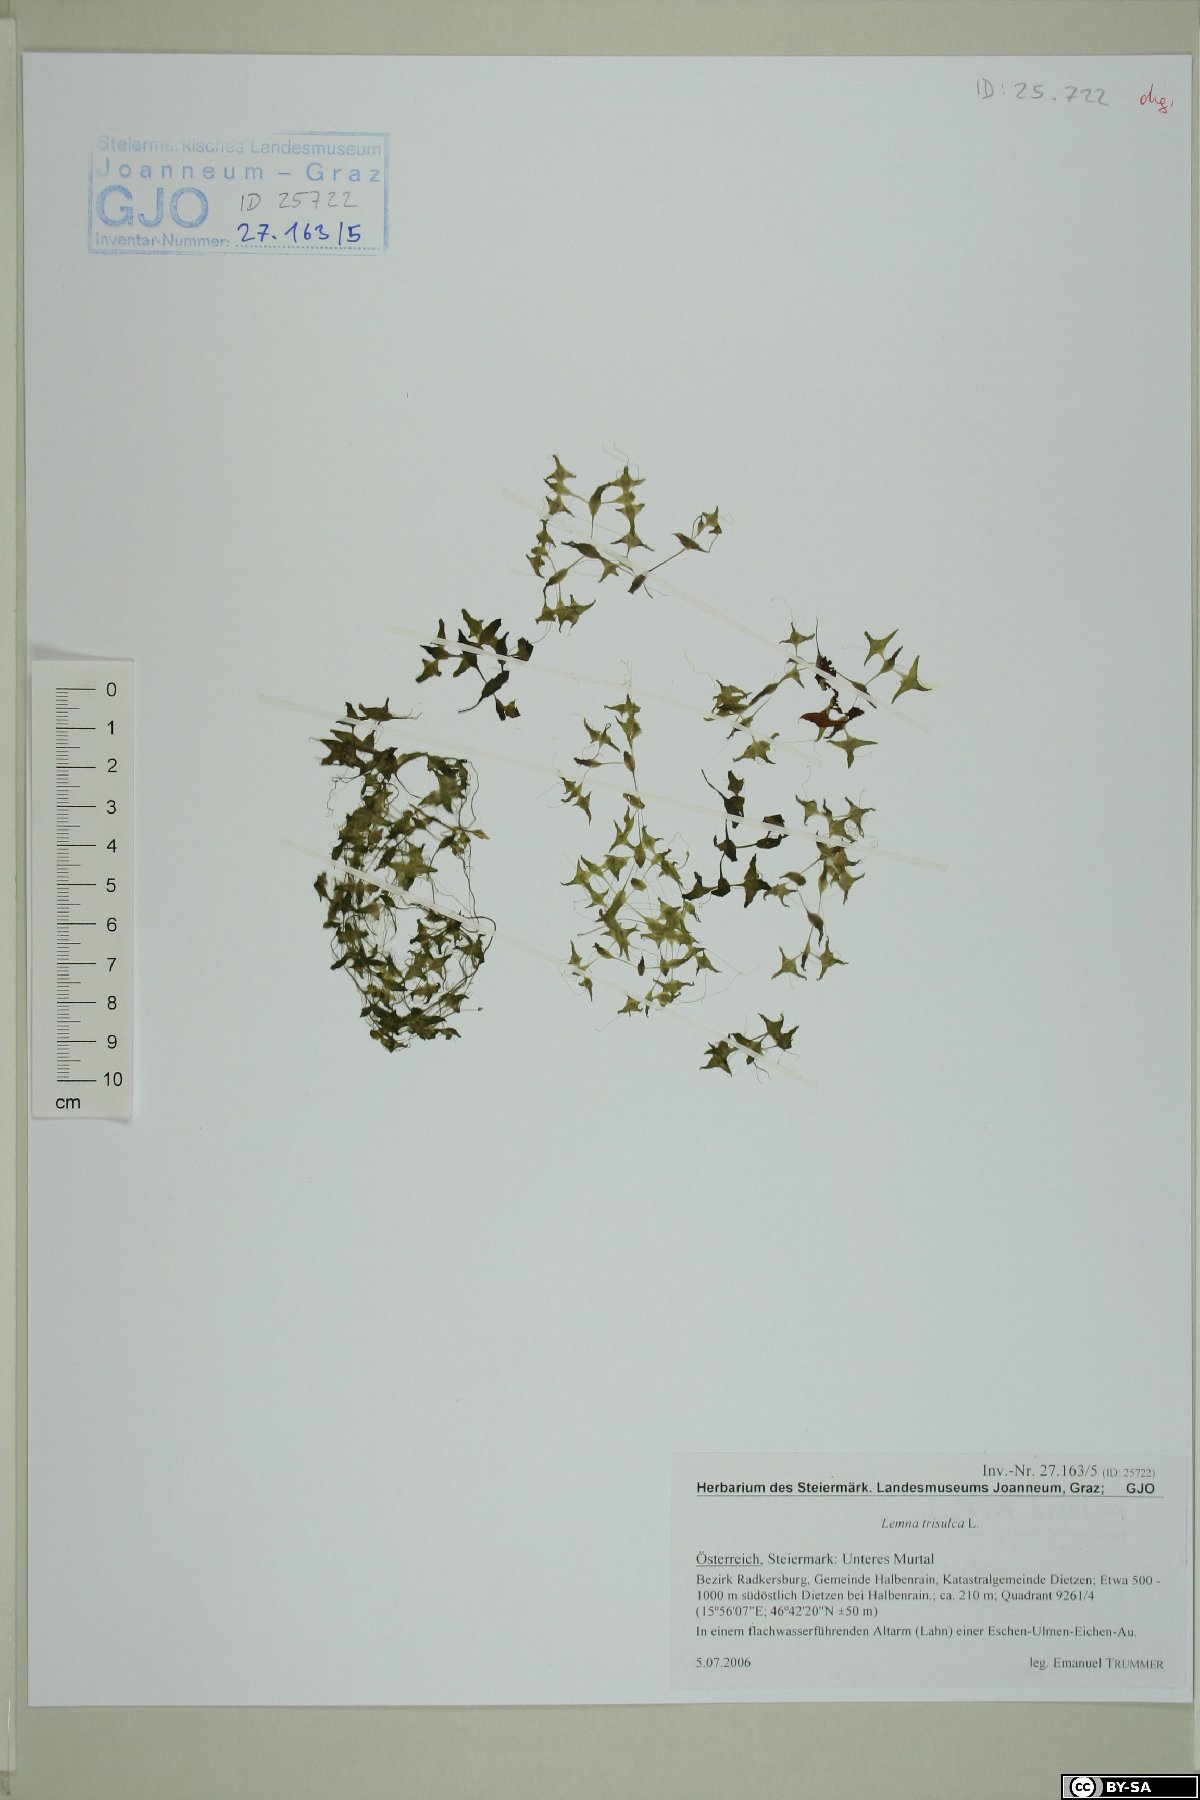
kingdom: Plantae
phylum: Tracheophyta
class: Liliopsida
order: Alismatales
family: Araceae
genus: Lemna
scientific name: Lemna trisulca
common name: Ivy-leaved duckweed
